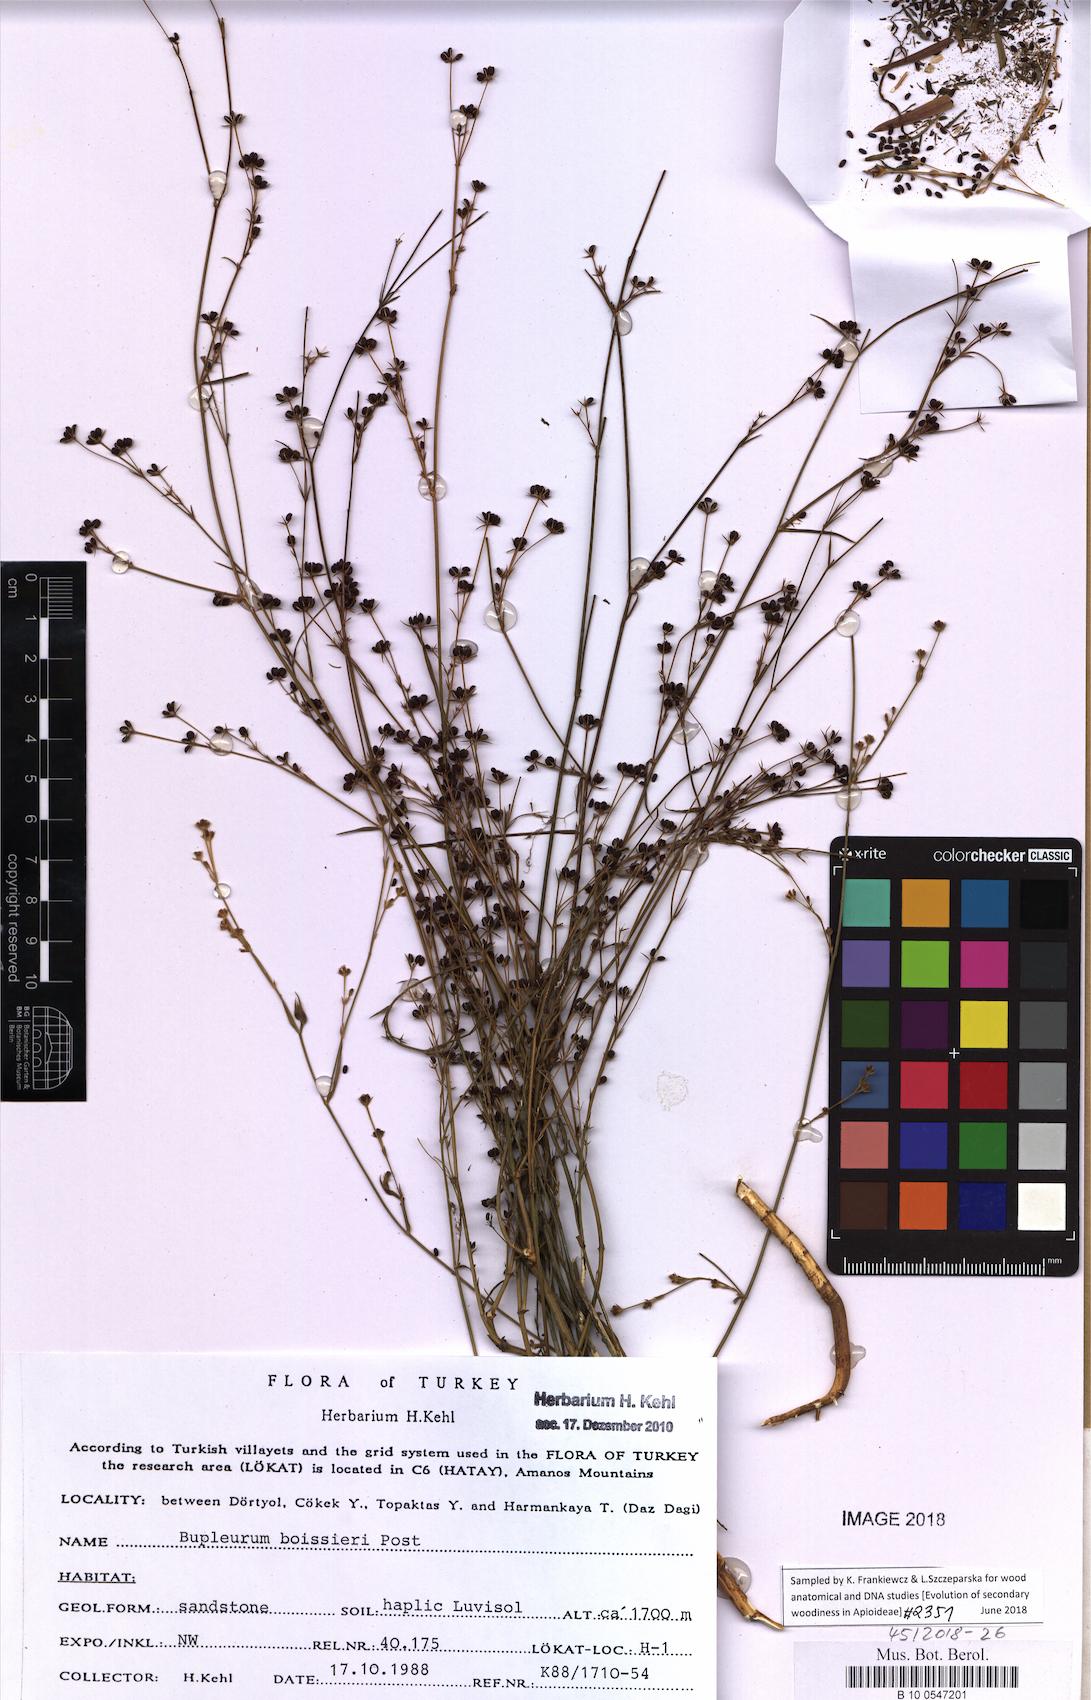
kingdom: Plantae
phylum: Tracheophyta
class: Magnoliopsida
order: Apiales
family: Apiaceae
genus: Bupleurum
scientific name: Bupleurum boissieri
